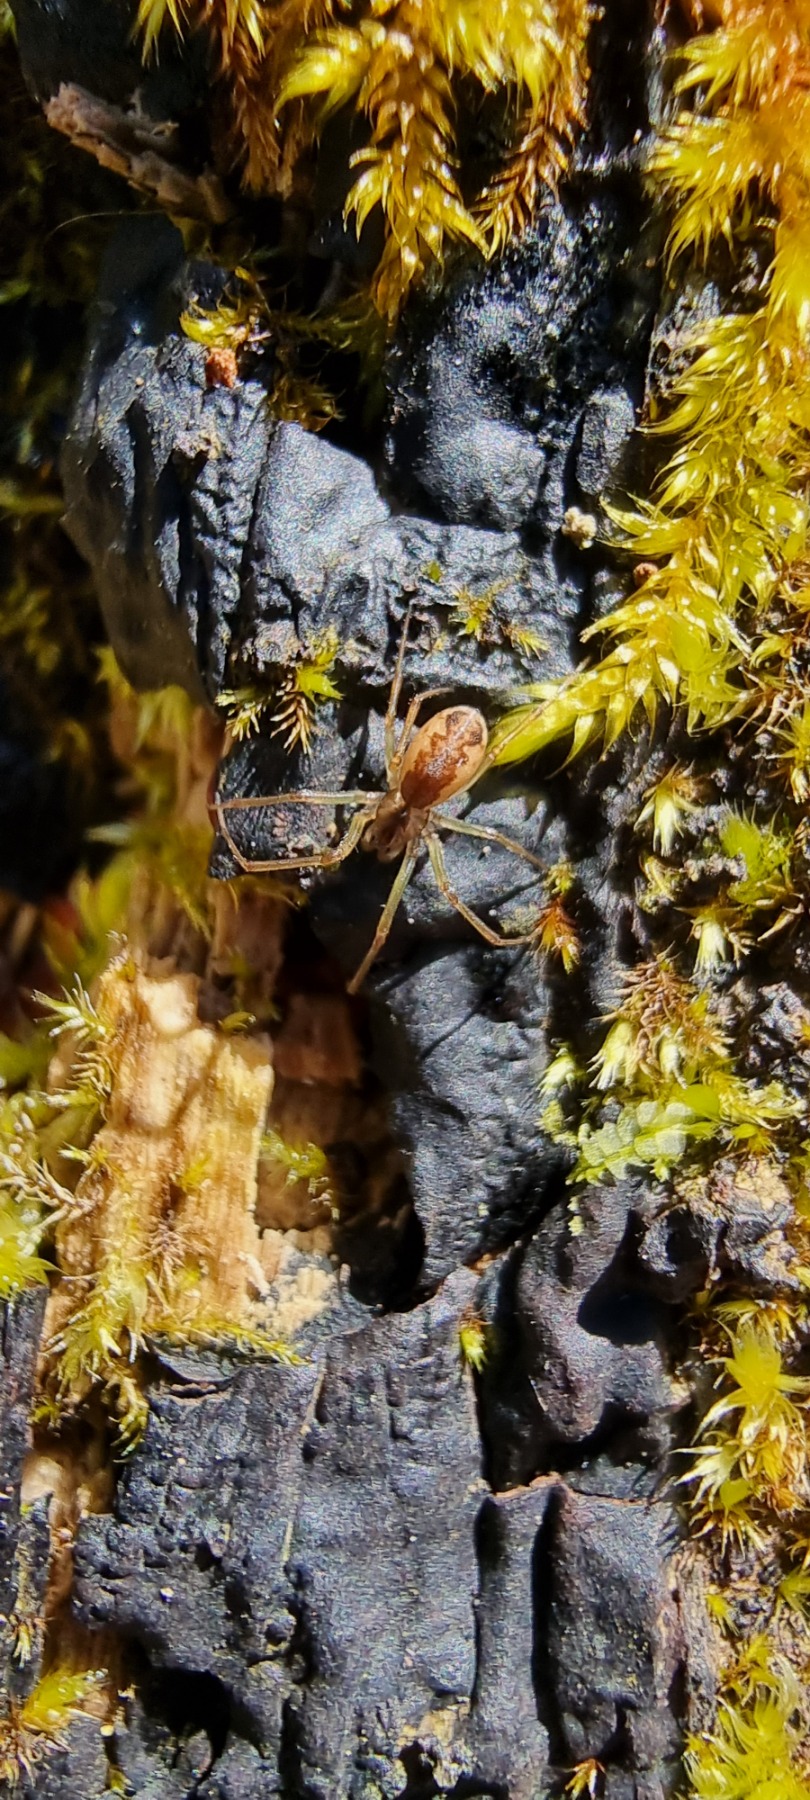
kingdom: Animalia
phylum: Arthropoda
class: Arachnida
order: Araneae
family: Linyphiidae
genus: Neriene
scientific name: Neriene peltata
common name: Hvidbuget baldakinspinder
